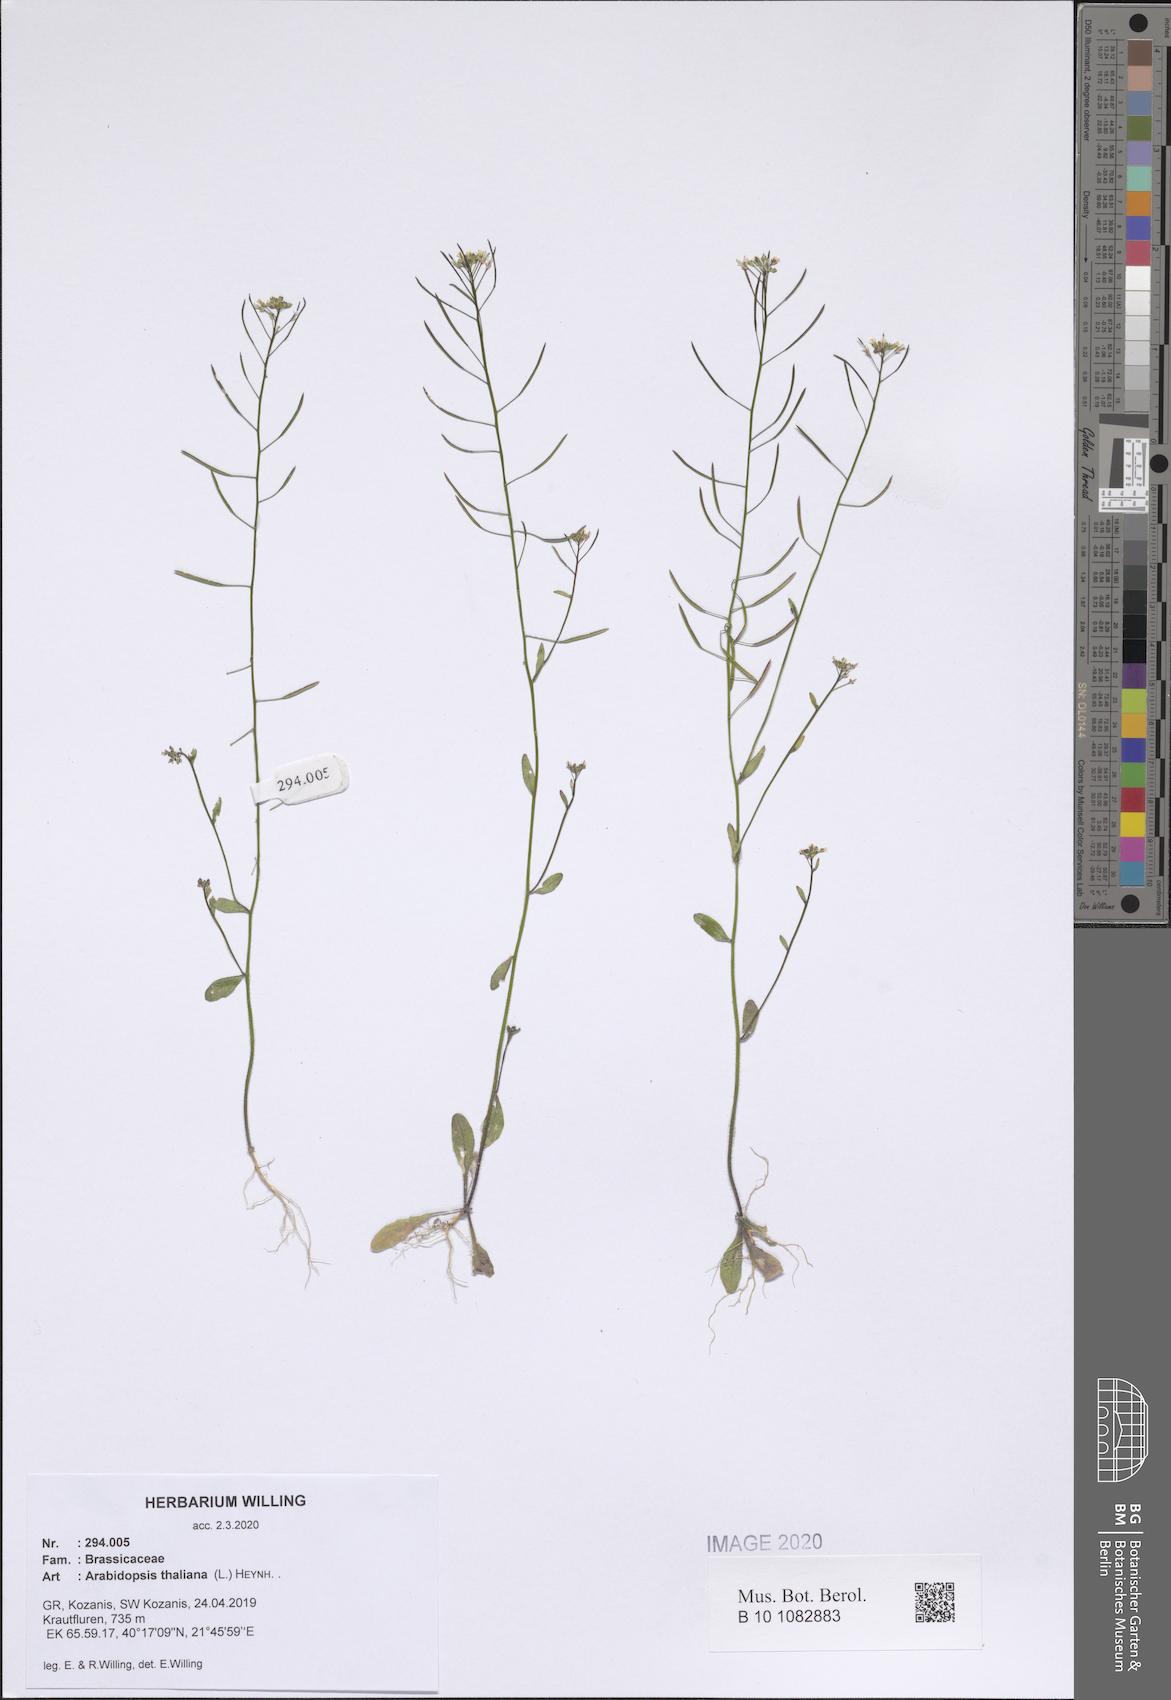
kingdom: Plantae
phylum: Tracheophyta
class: Magnoliopsida
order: Brassicales
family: Brassicaceae
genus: Arabidopsis
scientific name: Arabidopsis thaliana
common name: Thale cress
